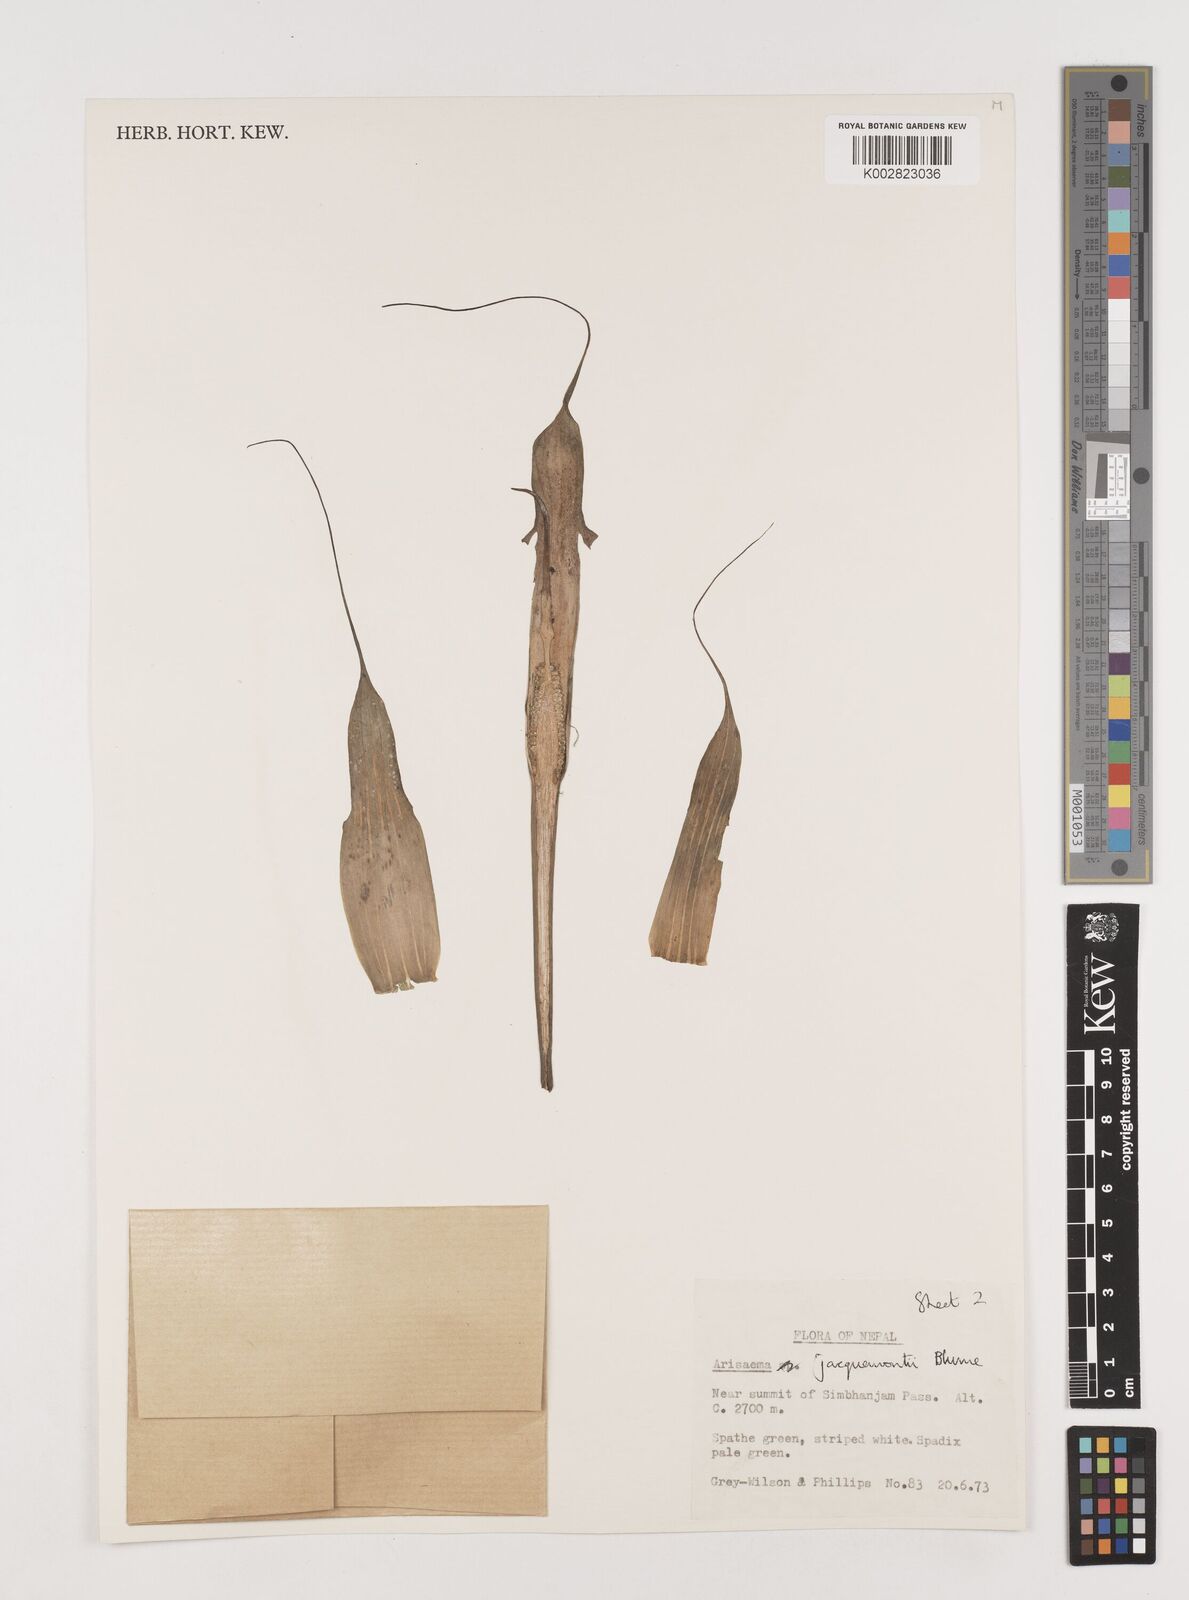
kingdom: Plantae
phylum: Tracheophyta
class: Liliopsida
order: Alismatales
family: Araceae
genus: Arisaema
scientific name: Arisaema jacquemontii
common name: Jacquemont's cobra-lily
